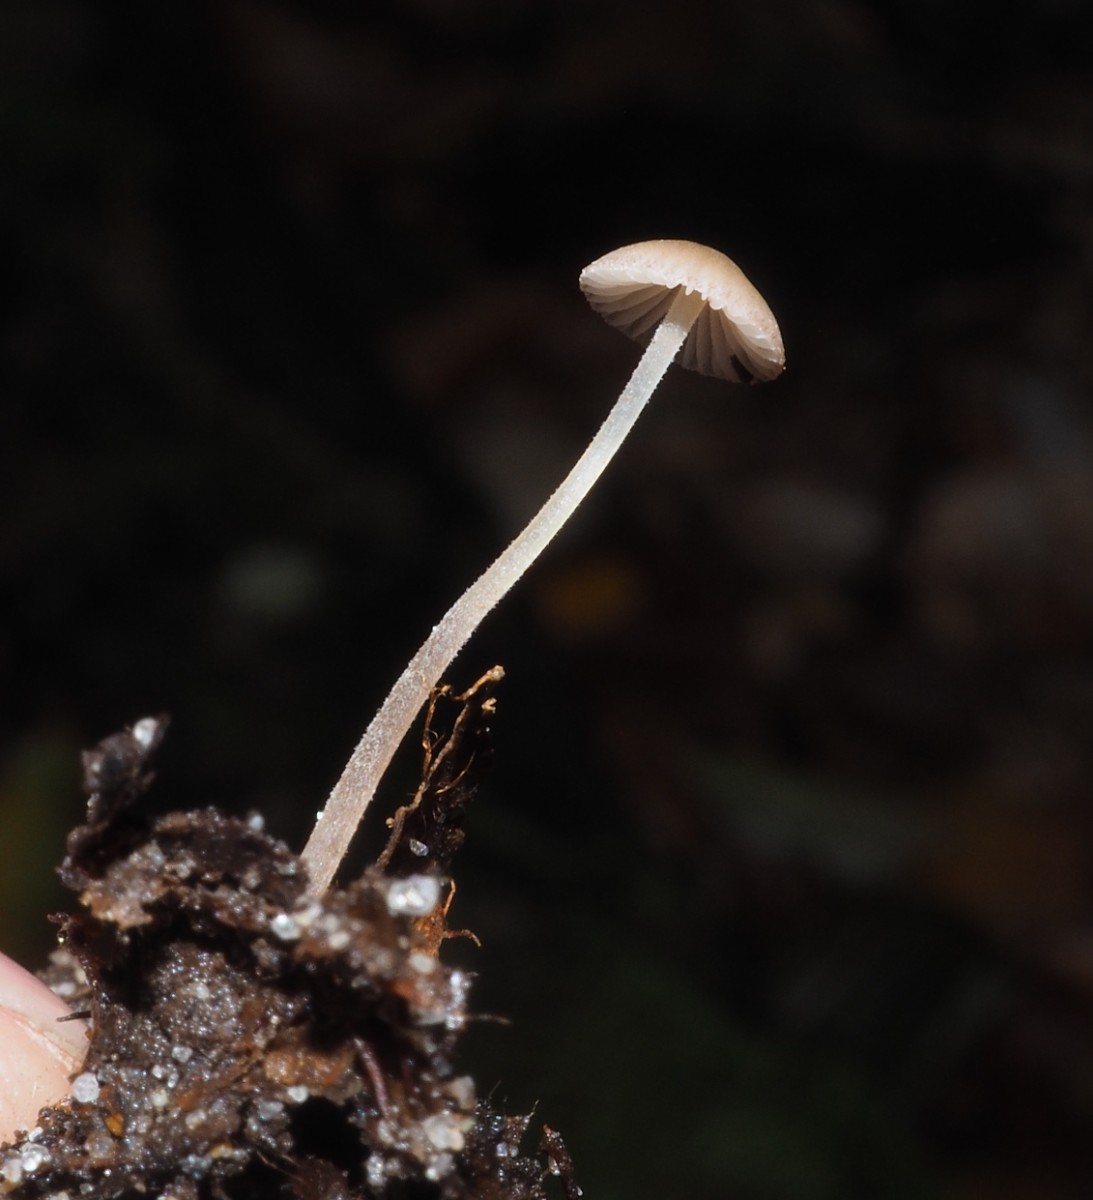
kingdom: Fungi
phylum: Basidiomycota
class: Agaricomycetes
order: Agaricales
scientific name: Agaricales
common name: champignonordenen
